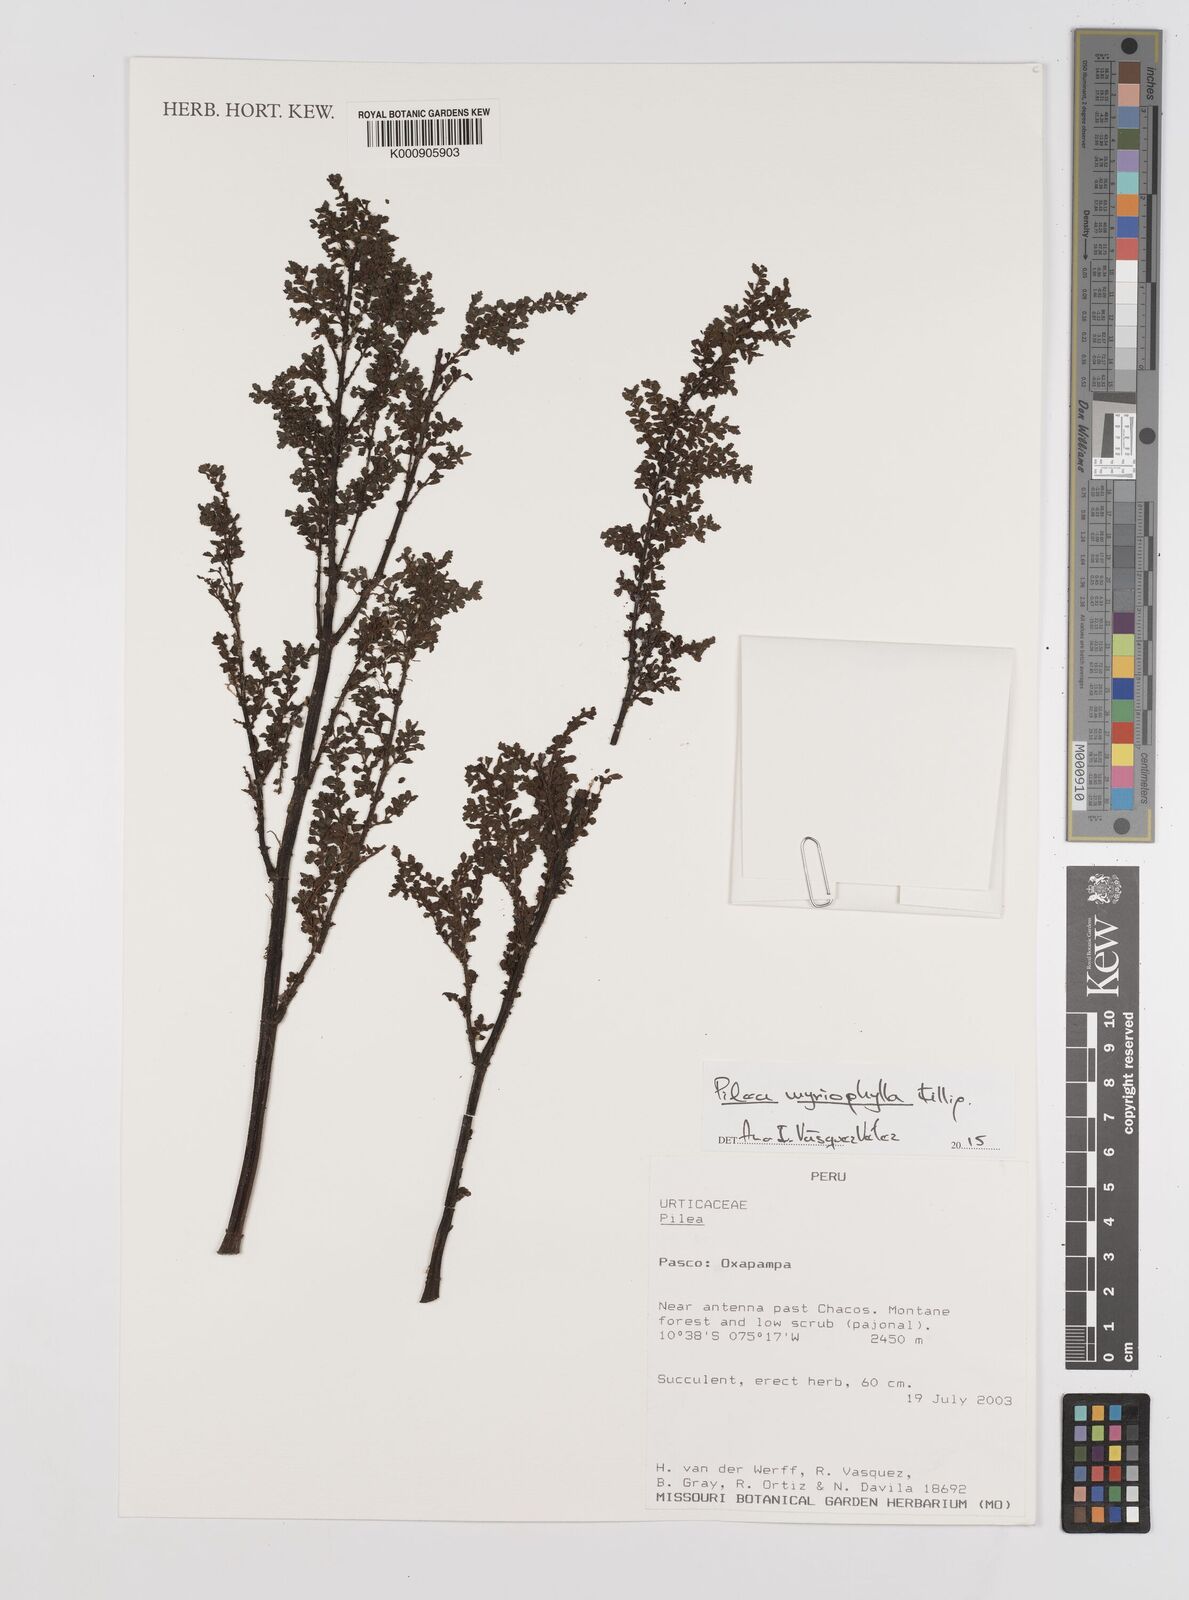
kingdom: Plantae
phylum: Tracheophyta
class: Magnoliopsida
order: Rosales
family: Urticaceae
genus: Pilea
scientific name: Pilea myriophylla
